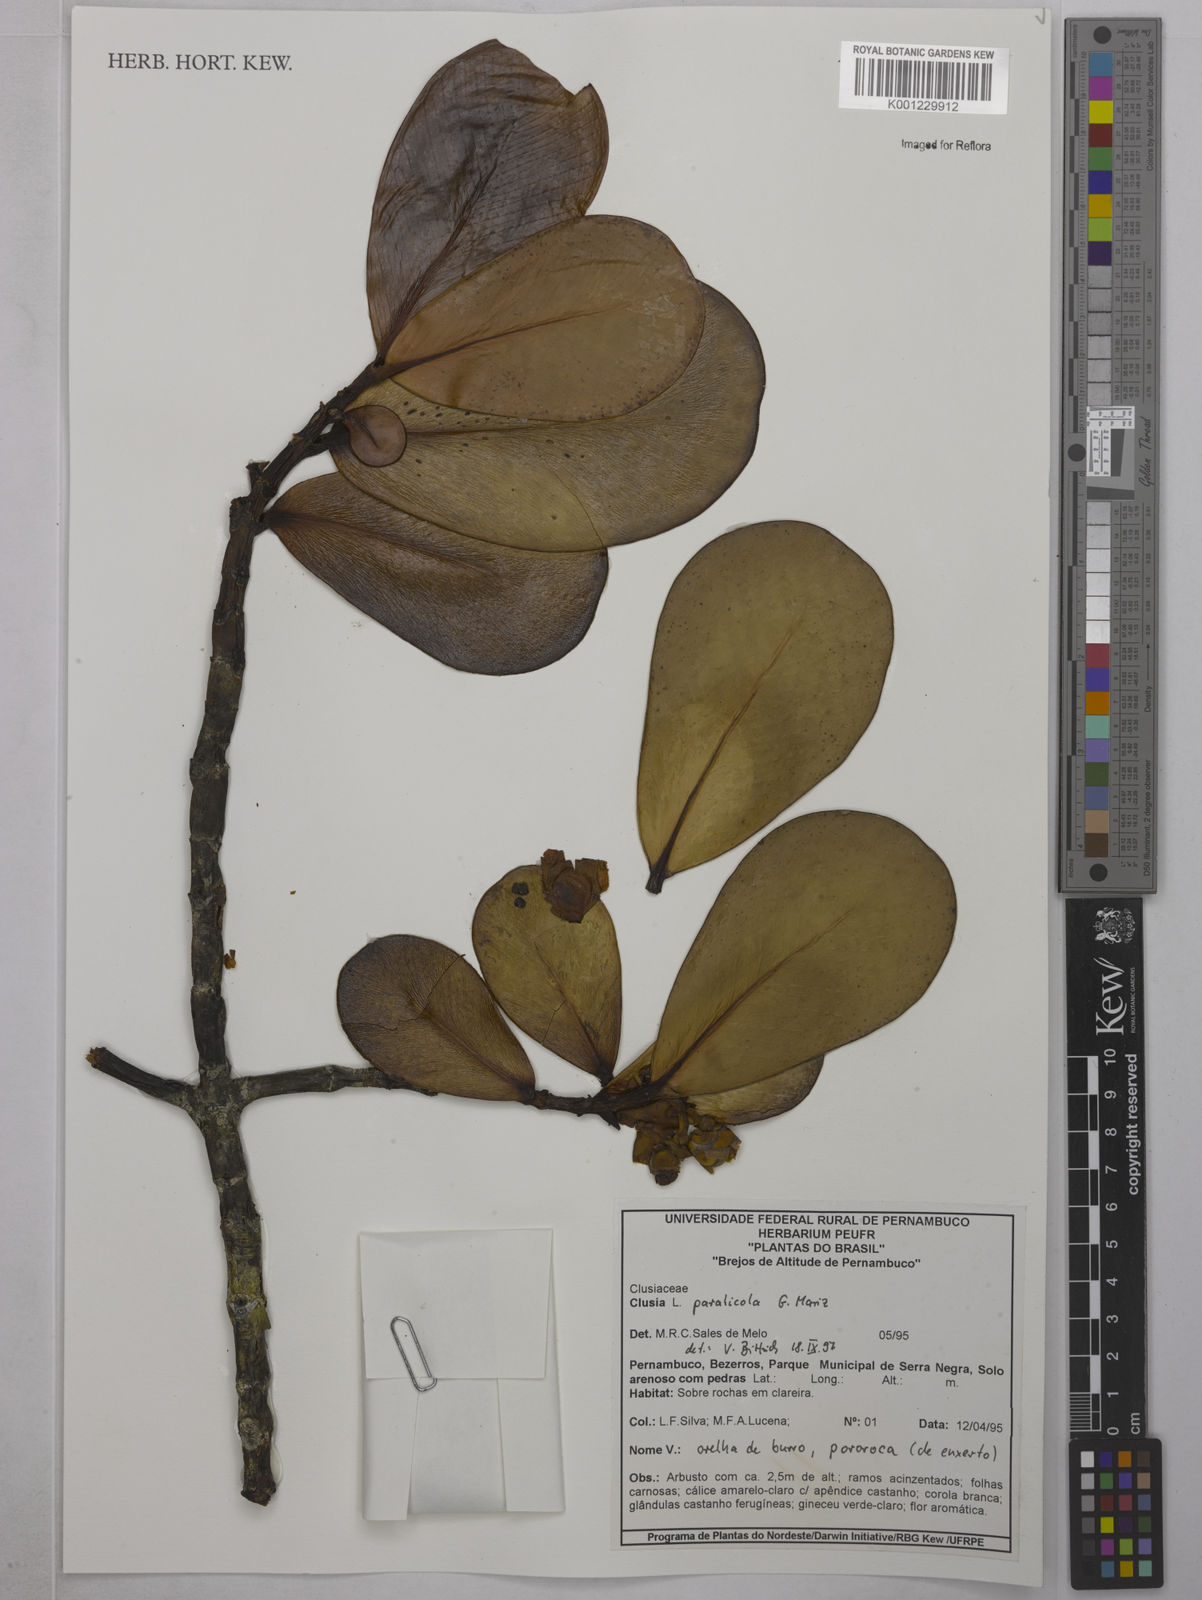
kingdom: Plantae
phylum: Tracheophyta
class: Magnoliopsida
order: Malpighiales
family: Clusiaceae
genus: Clusia
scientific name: Clusia paralicola
